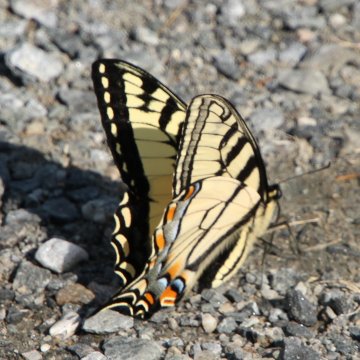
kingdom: Animalia
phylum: Arthropoda
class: Insecta
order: Lepidoptera
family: Papilionidae
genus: Pterourus
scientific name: Pterourus canadensis
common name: Canadian Tiger Swallowtail
